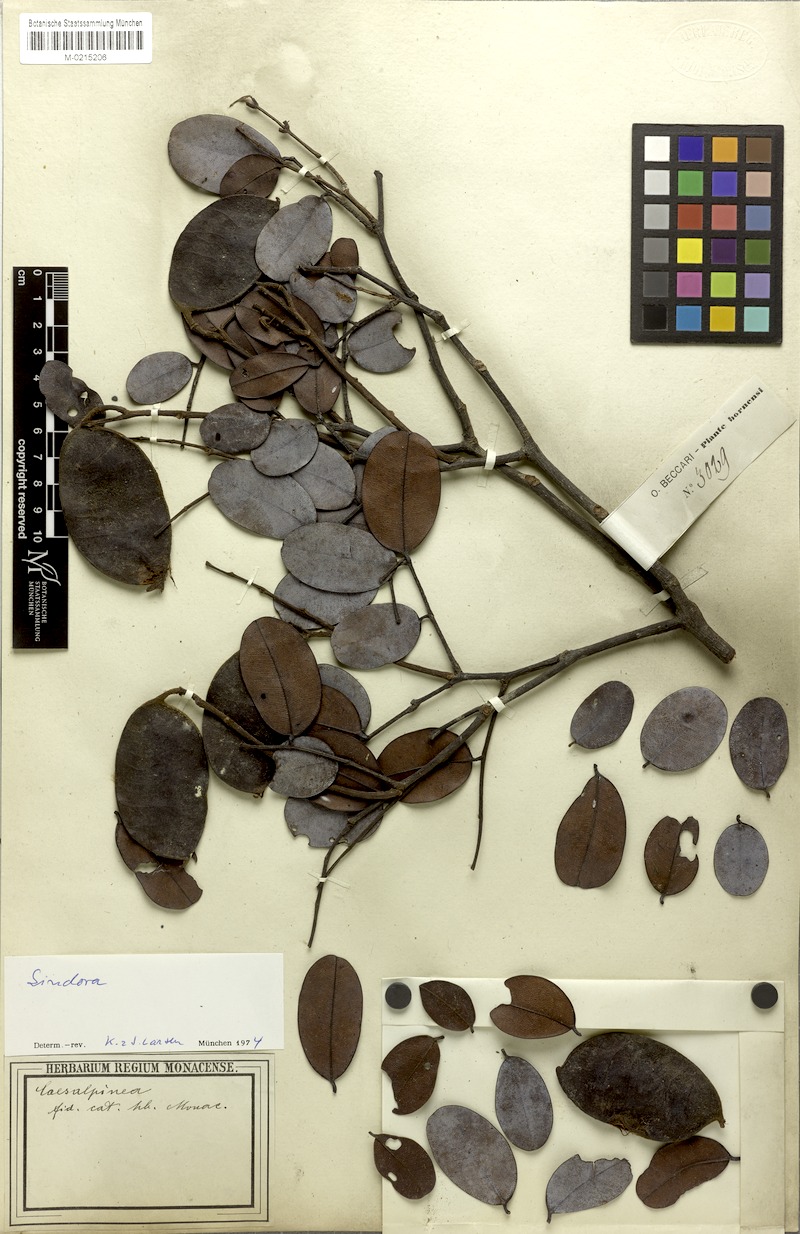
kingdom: Plantae
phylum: Tracheophyta
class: Magnoliopsida
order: Fabales
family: Fabaceae
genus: Sindora
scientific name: Sindora
